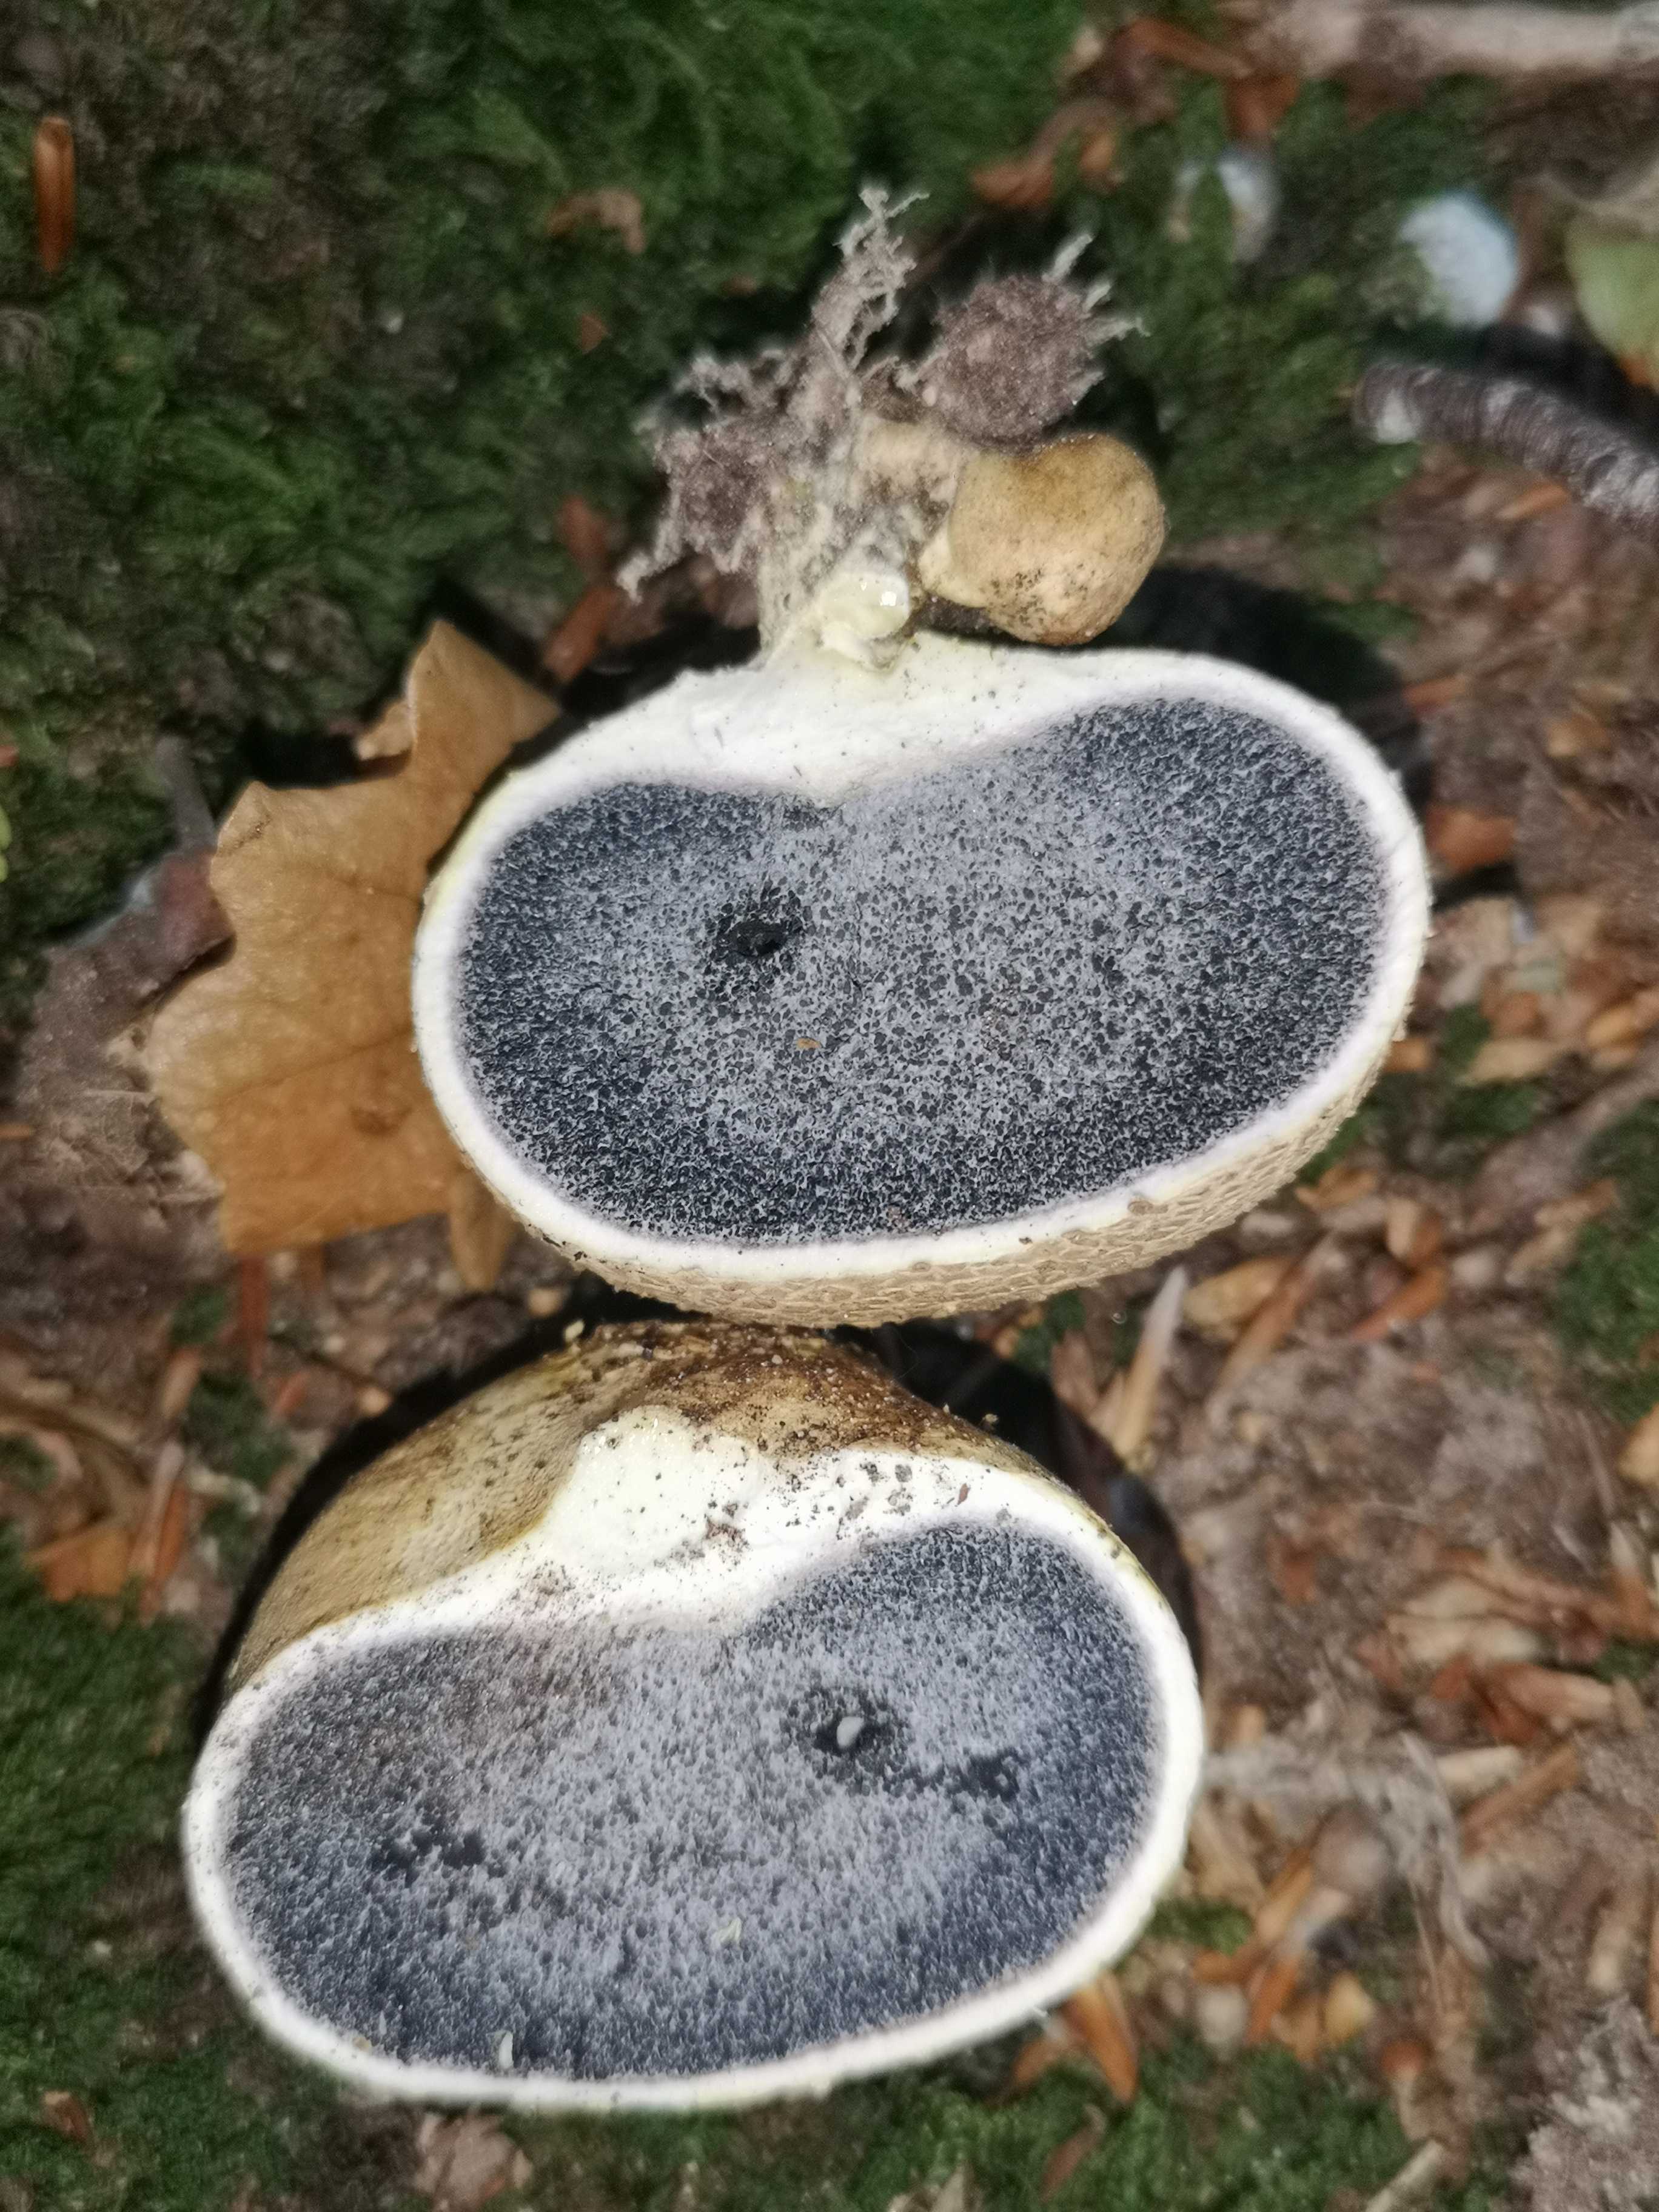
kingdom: Fungi
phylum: Basidiomycota
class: Agaricomycetes
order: Boletales
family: Sclerodermataceae
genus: Scleroderma
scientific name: Scleroderma citrinum
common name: almindelig bruskbold
